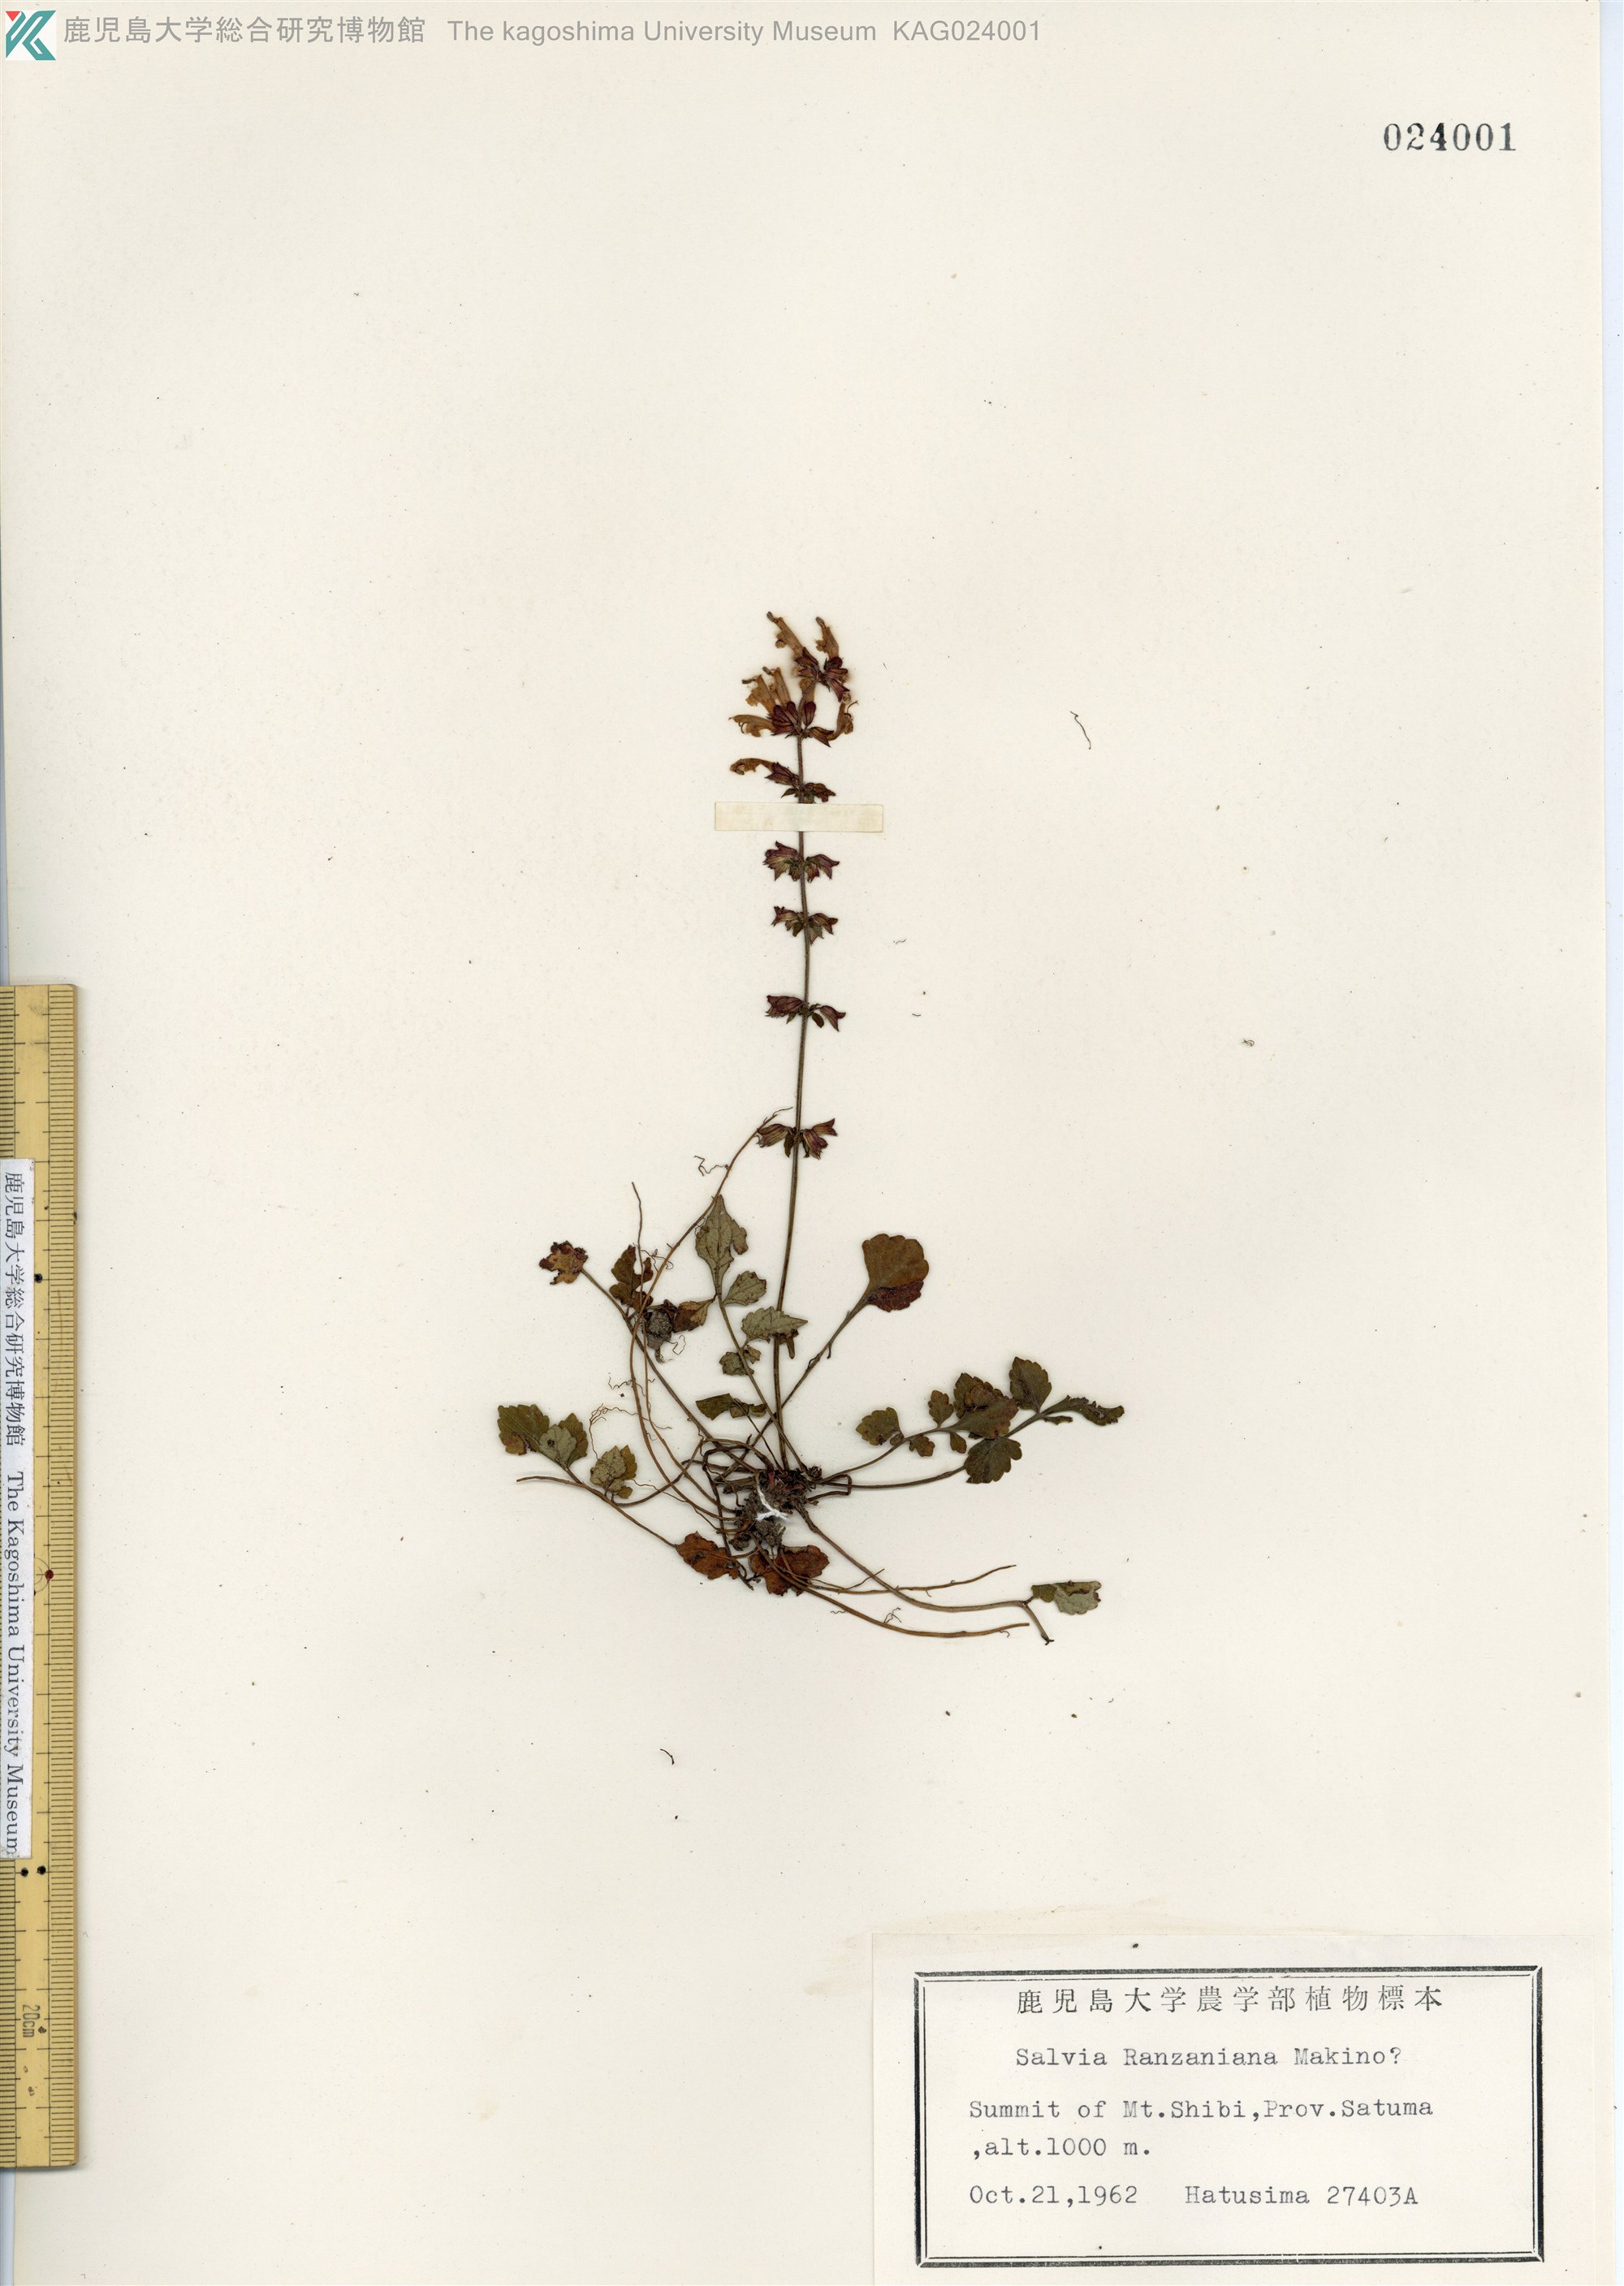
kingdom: Plantae
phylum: Tracheophyta
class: Magnoliopsida
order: Lamiales
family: Lamiaceae
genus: Salvia
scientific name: Salvia japonica
